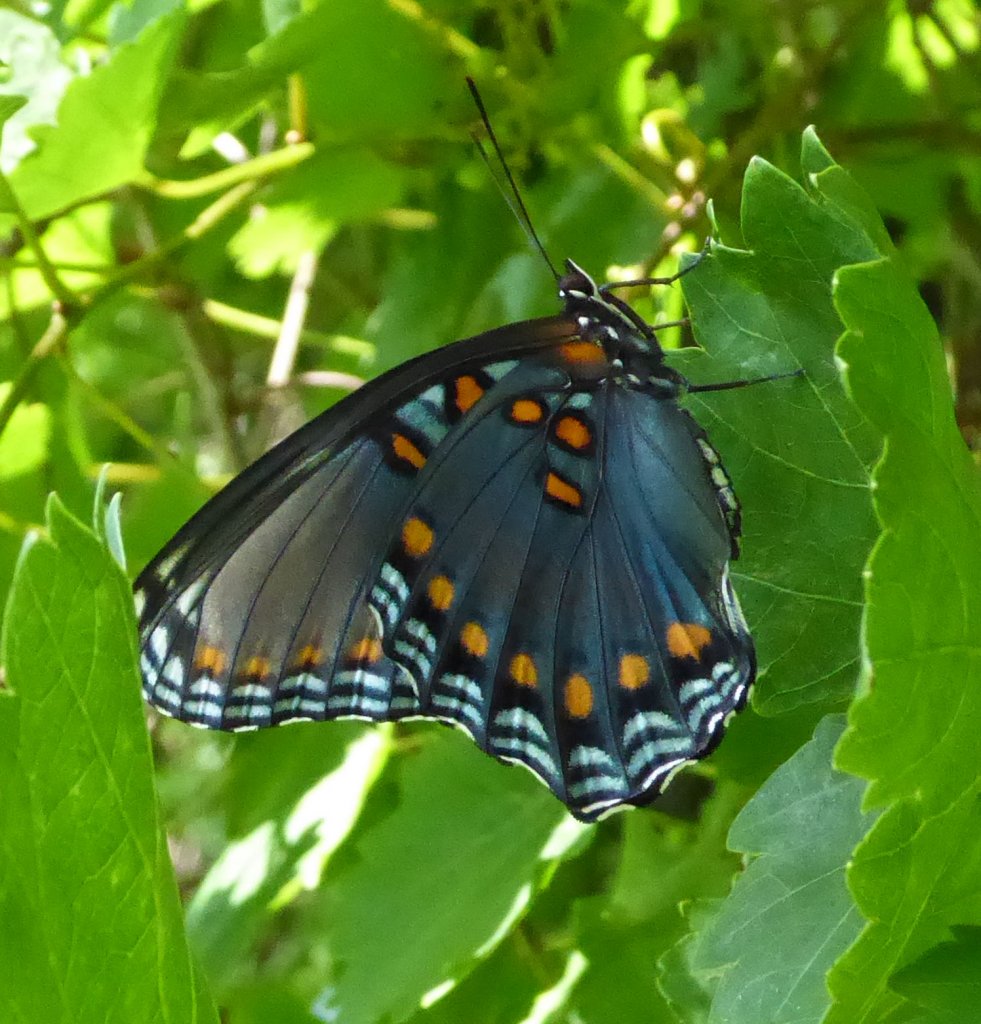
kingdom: Animalia
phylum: Arthropoda
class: Insecta
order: Lepidoptera
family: Nymphalidae
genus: Limenitis
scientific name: Limenitis astyanax
